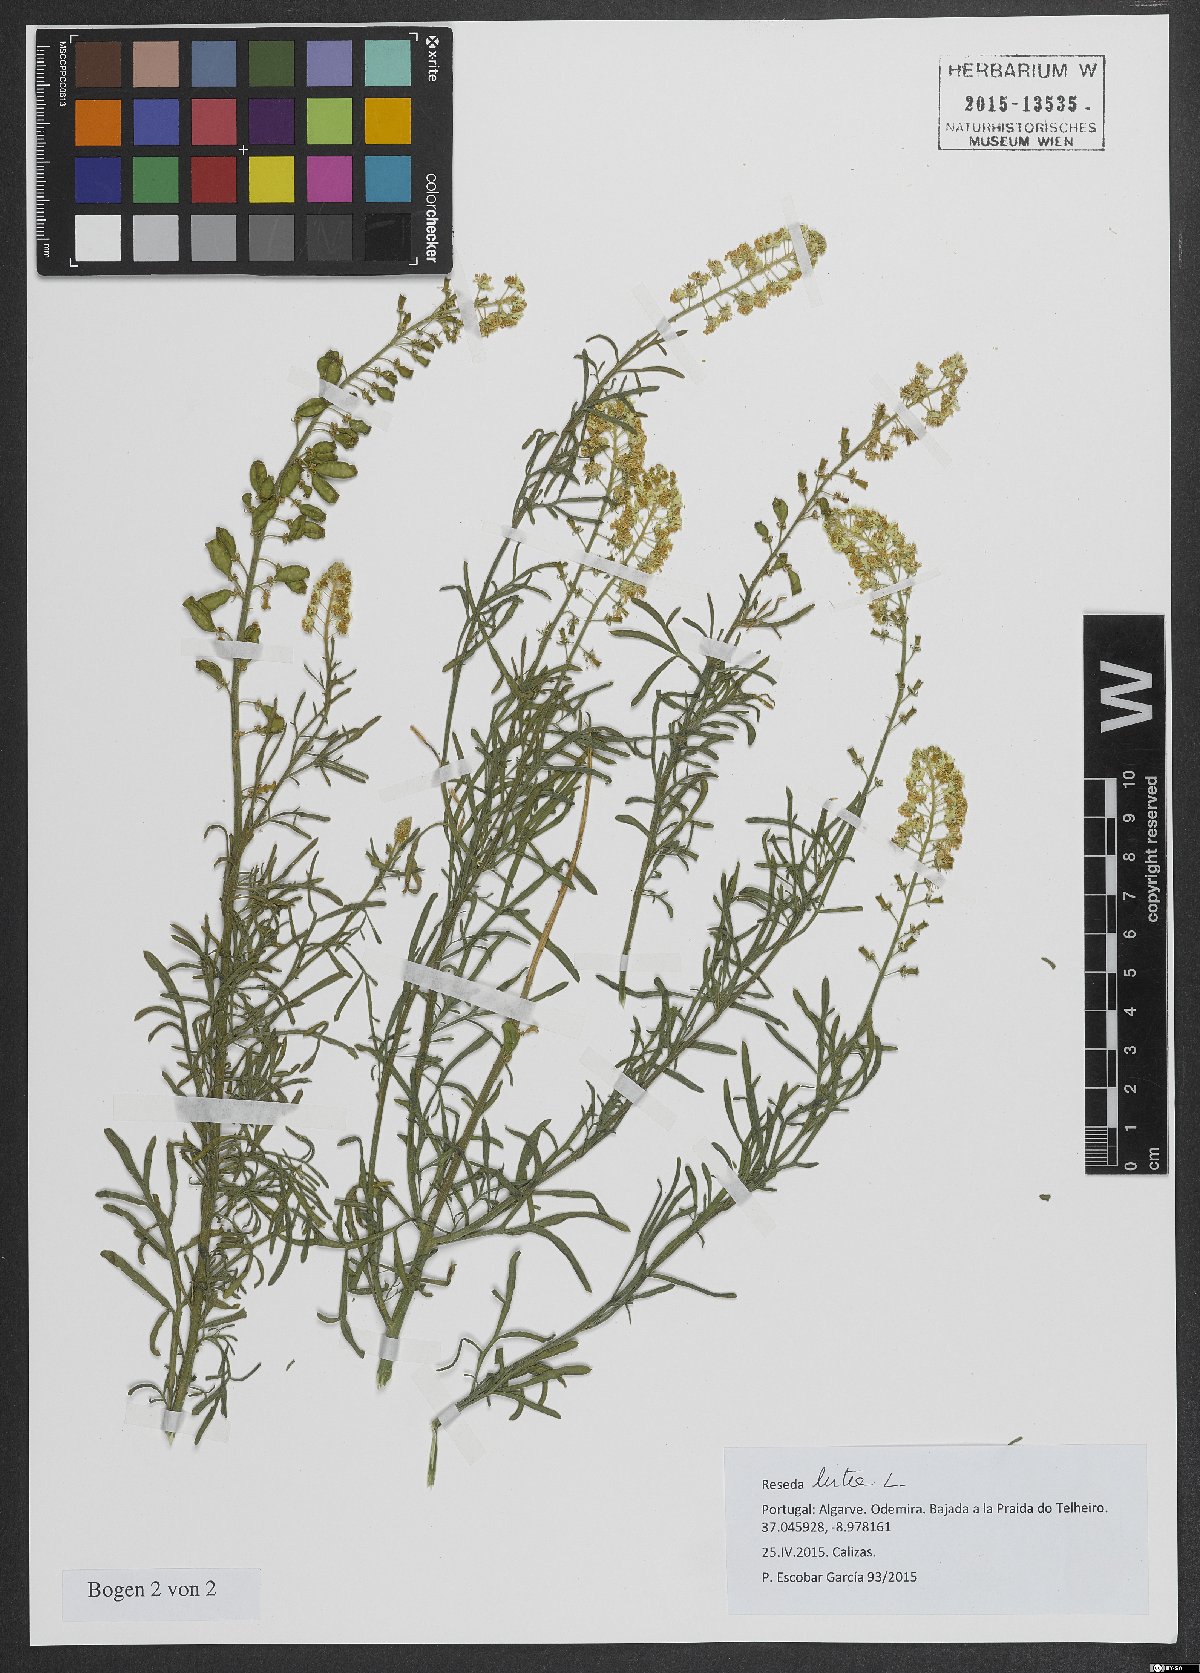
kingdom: Plantae
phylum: Tracheophyta
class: Magnoliopsida
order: Brassicales
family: Resedaceae
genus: Reseda
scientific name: Reseda lutea
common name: Wild mignonette
